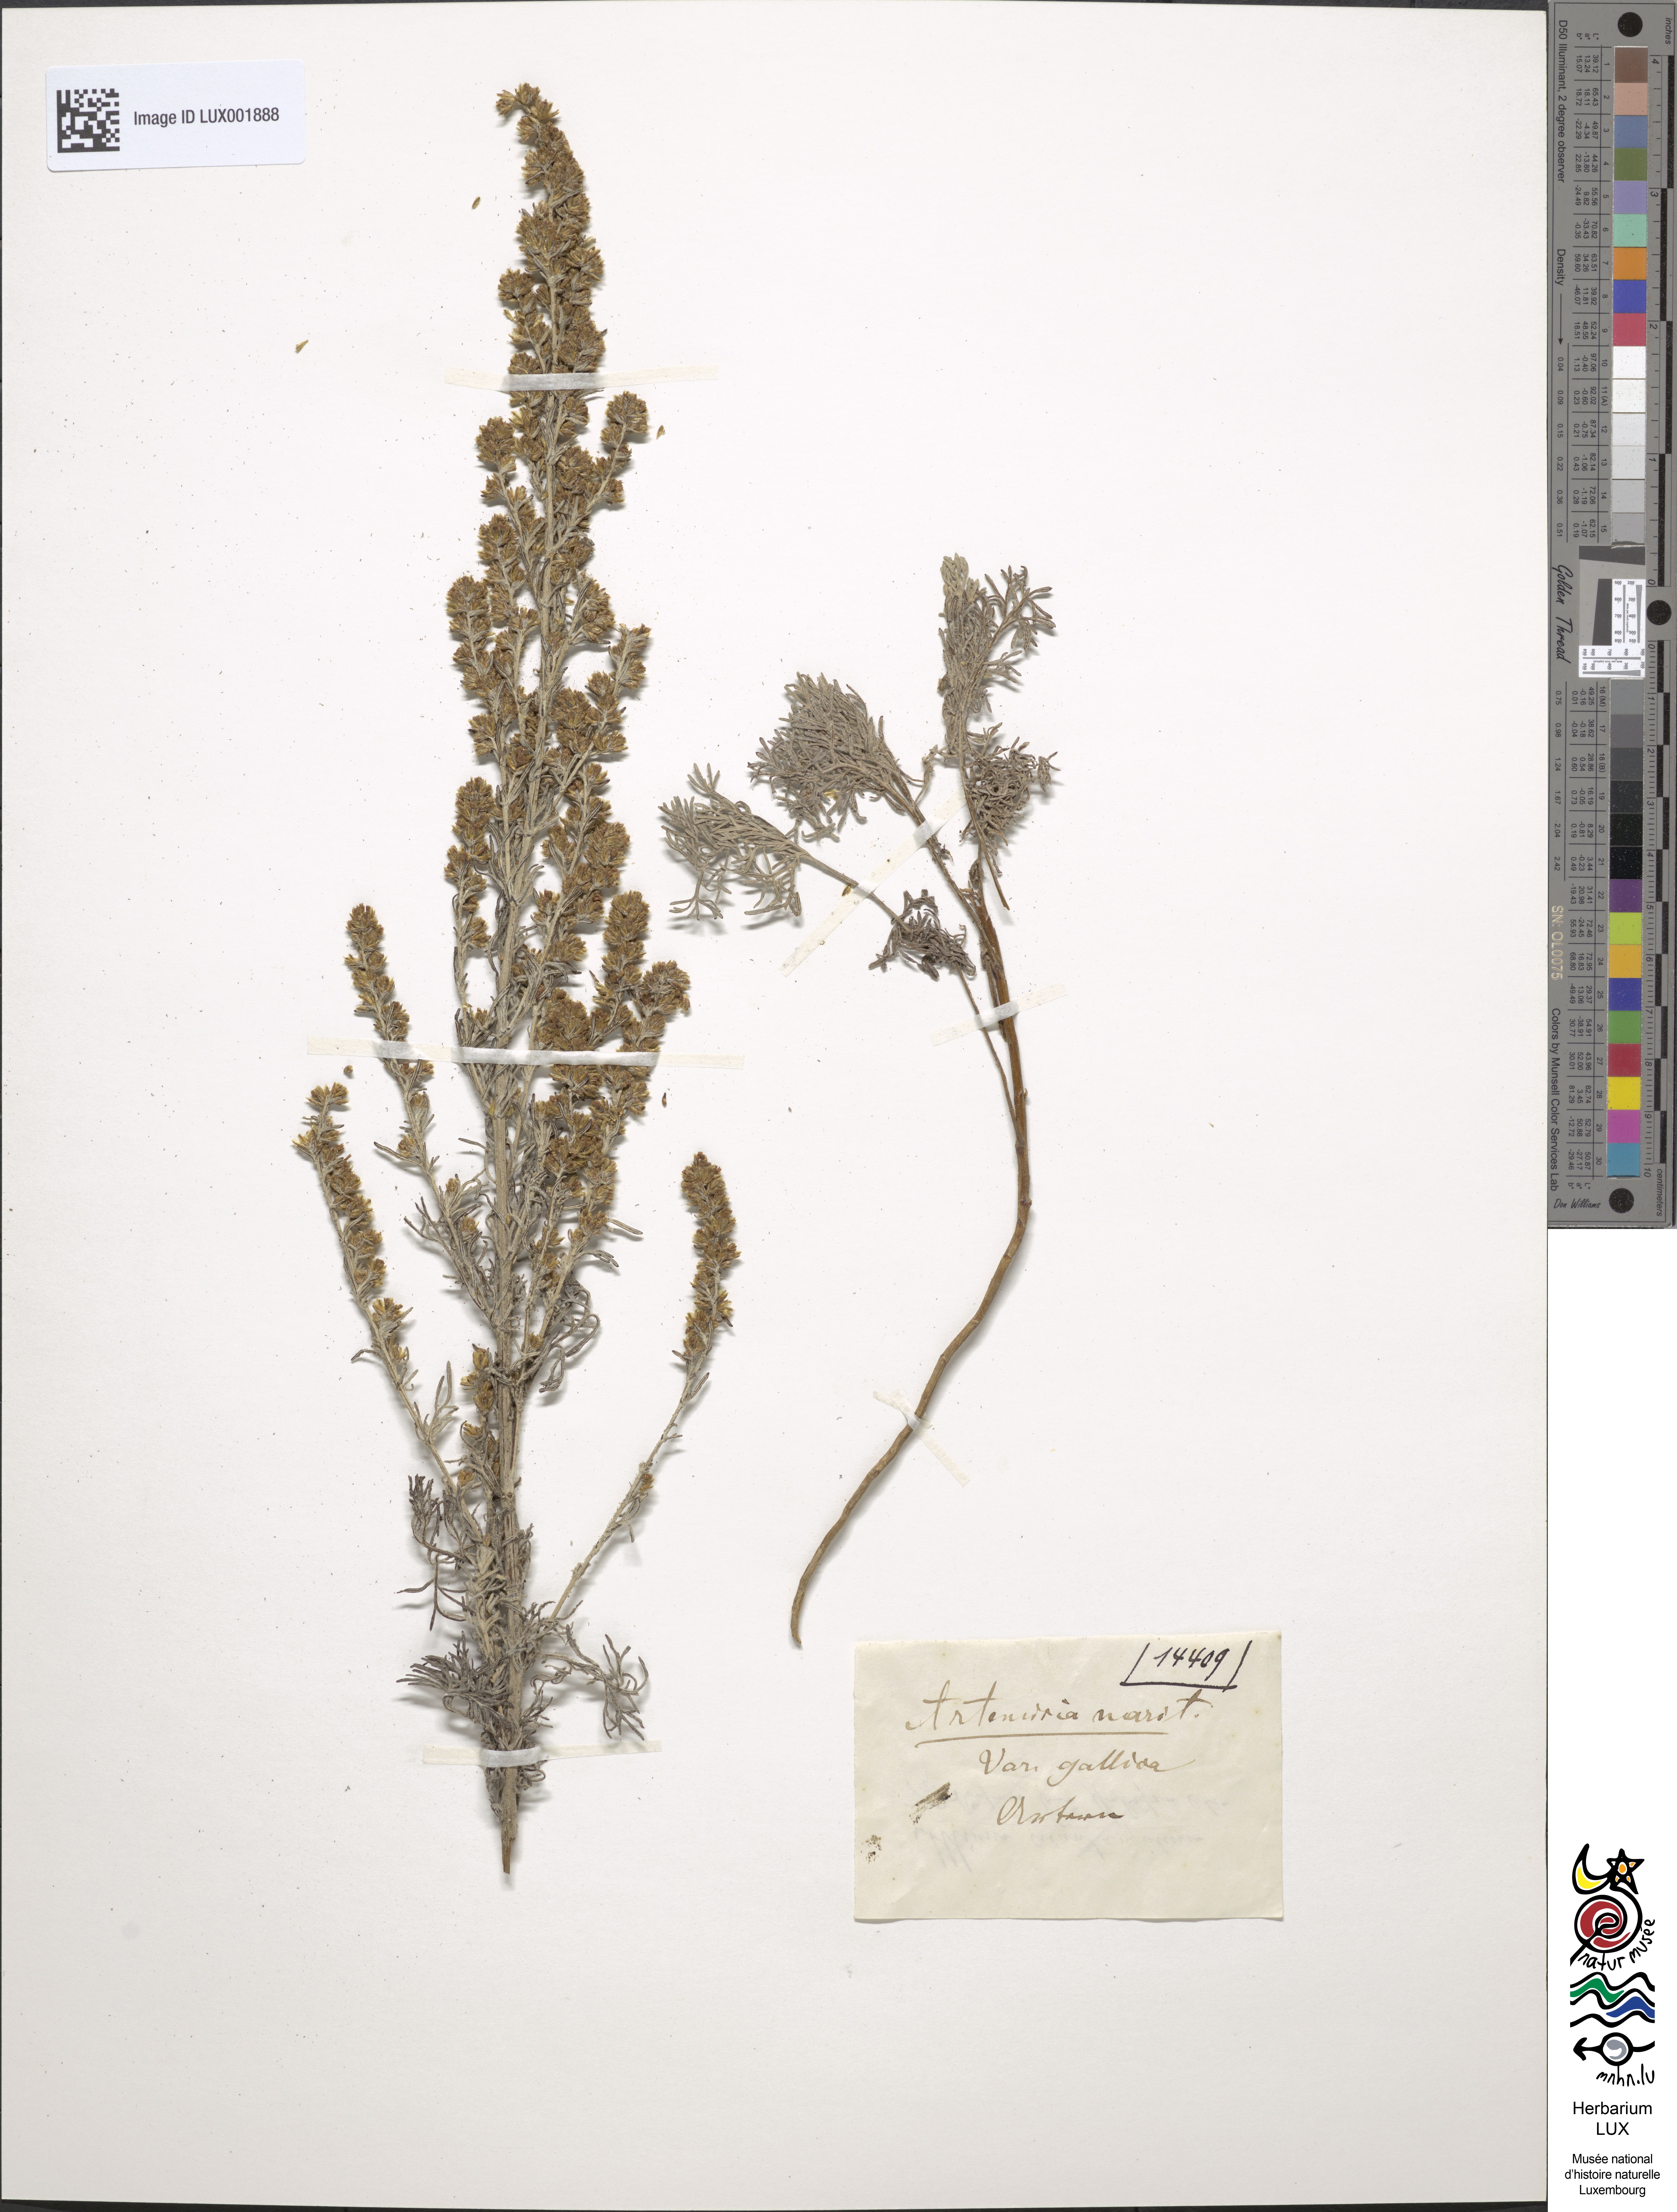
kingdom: Plantae
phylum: Tracheophyta
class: Magnoliopsida
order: Asterales
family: Asteraceae
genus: Artemisia
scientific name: Artemisia caerulescens
